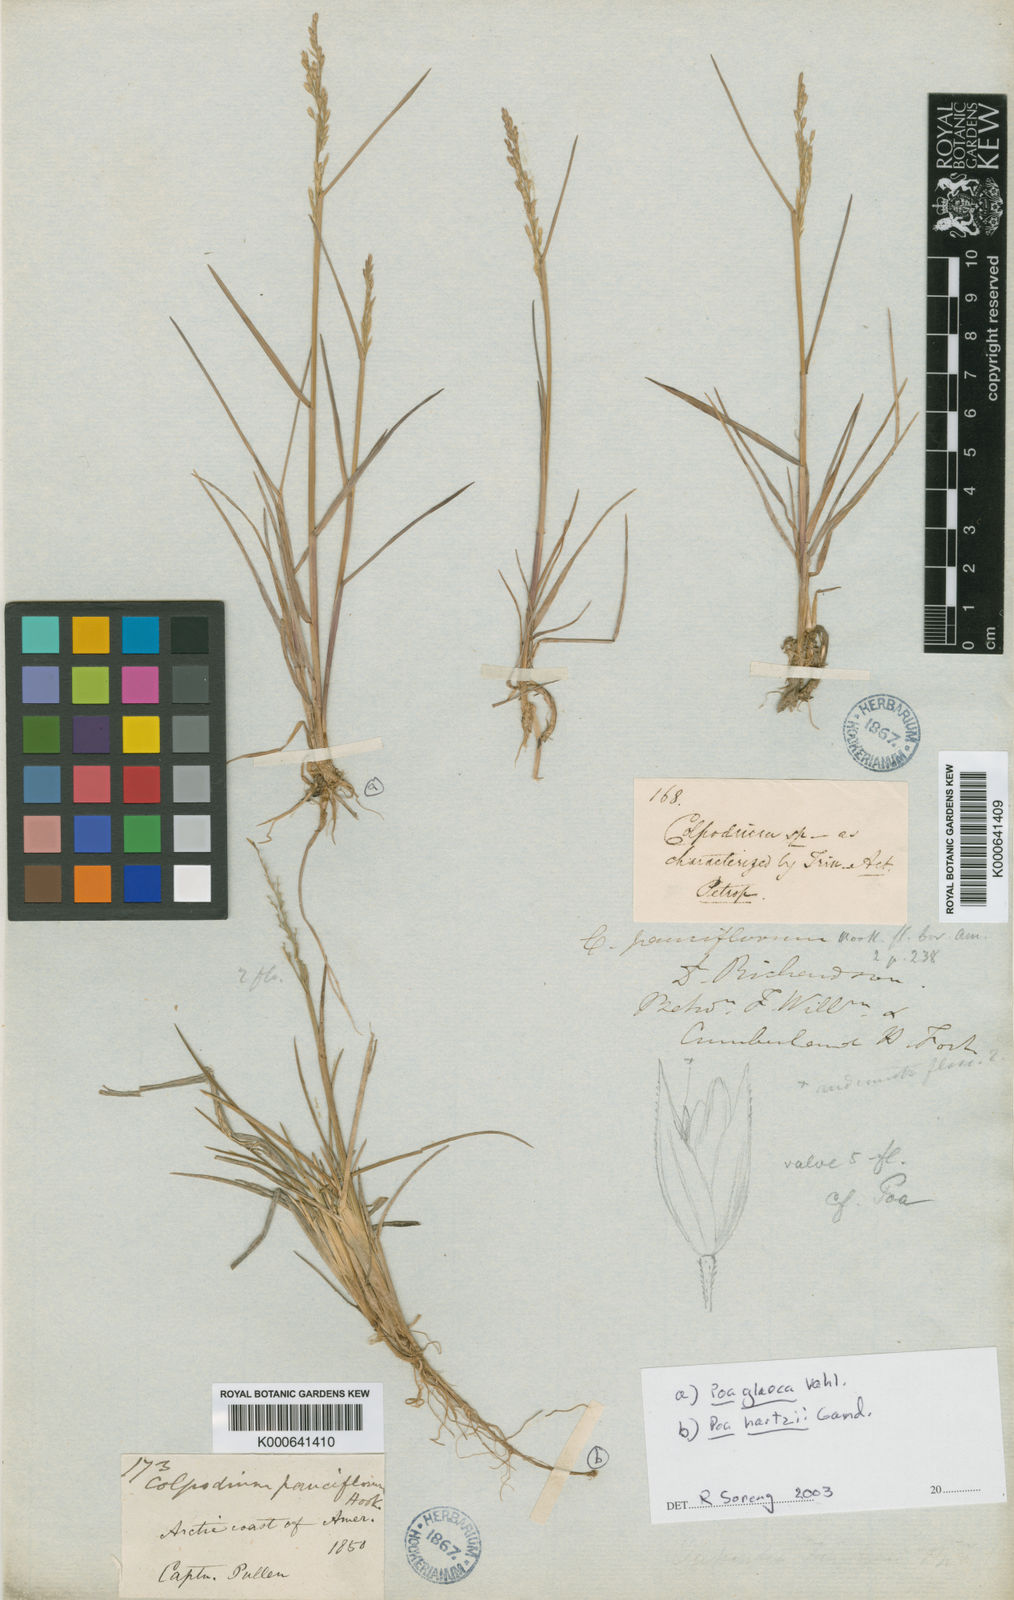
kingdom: Plantae
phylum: Tracheophyta
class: Liliopsida
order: Poales
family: Poaceae
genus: Poa
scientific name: Poa pauciflora
